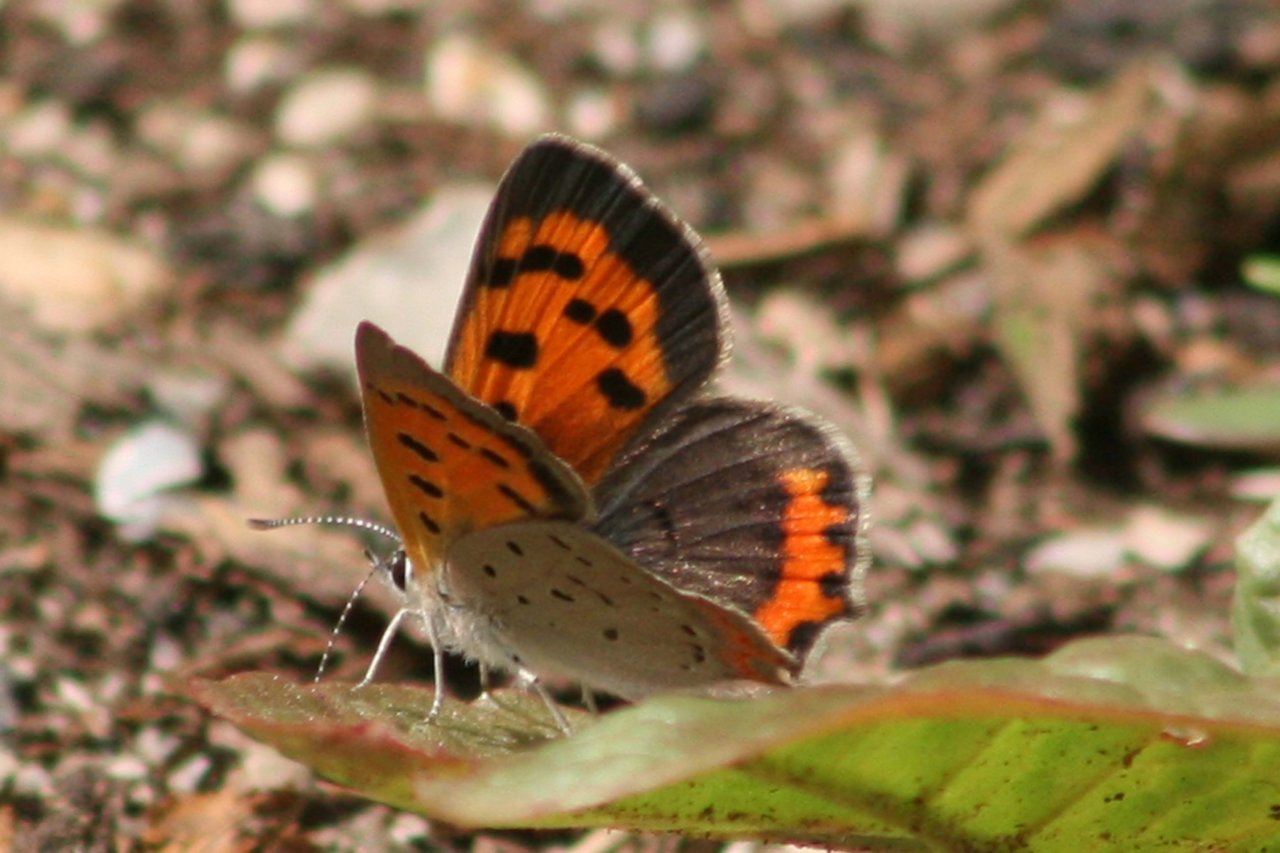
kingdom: Animalia
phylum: Arthropoda
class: Insecta
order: Lepidoptera
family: Lycaenidae
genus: Lycaena
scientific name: Lycaena phlaeas
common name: American Copper
